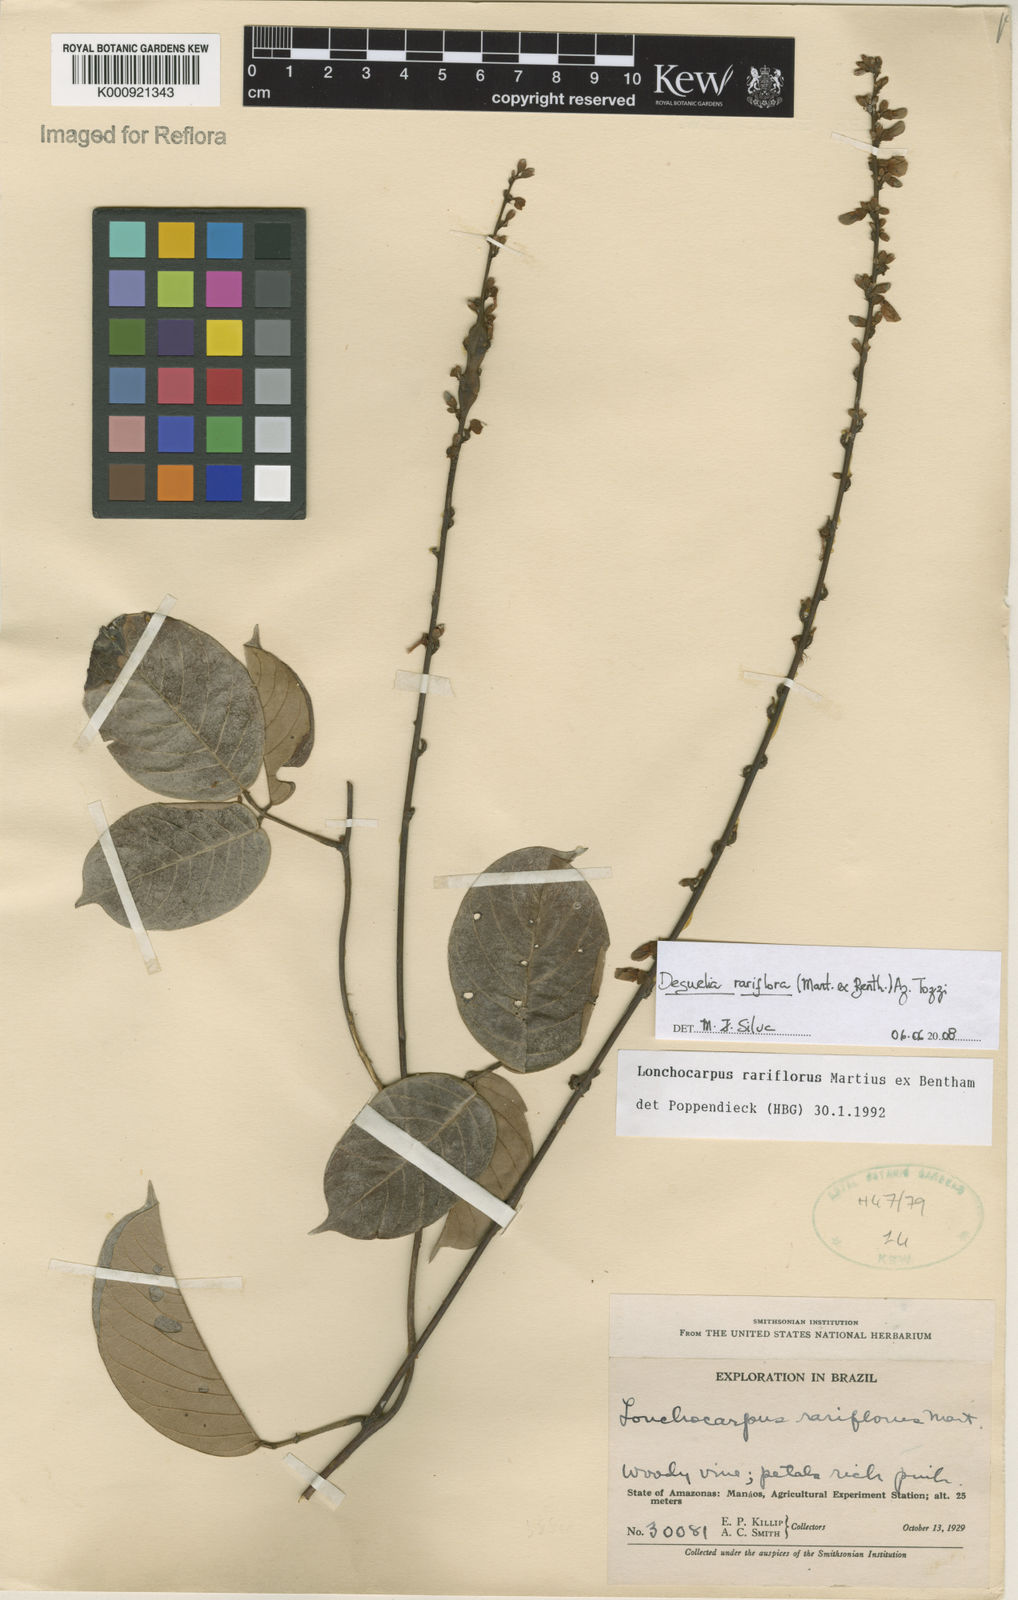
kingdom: Plantae
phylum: Tracheophyta
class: Magnoliopsida
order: Fabales
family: Fabaceae
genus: Deguelia
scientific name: Deguelia
